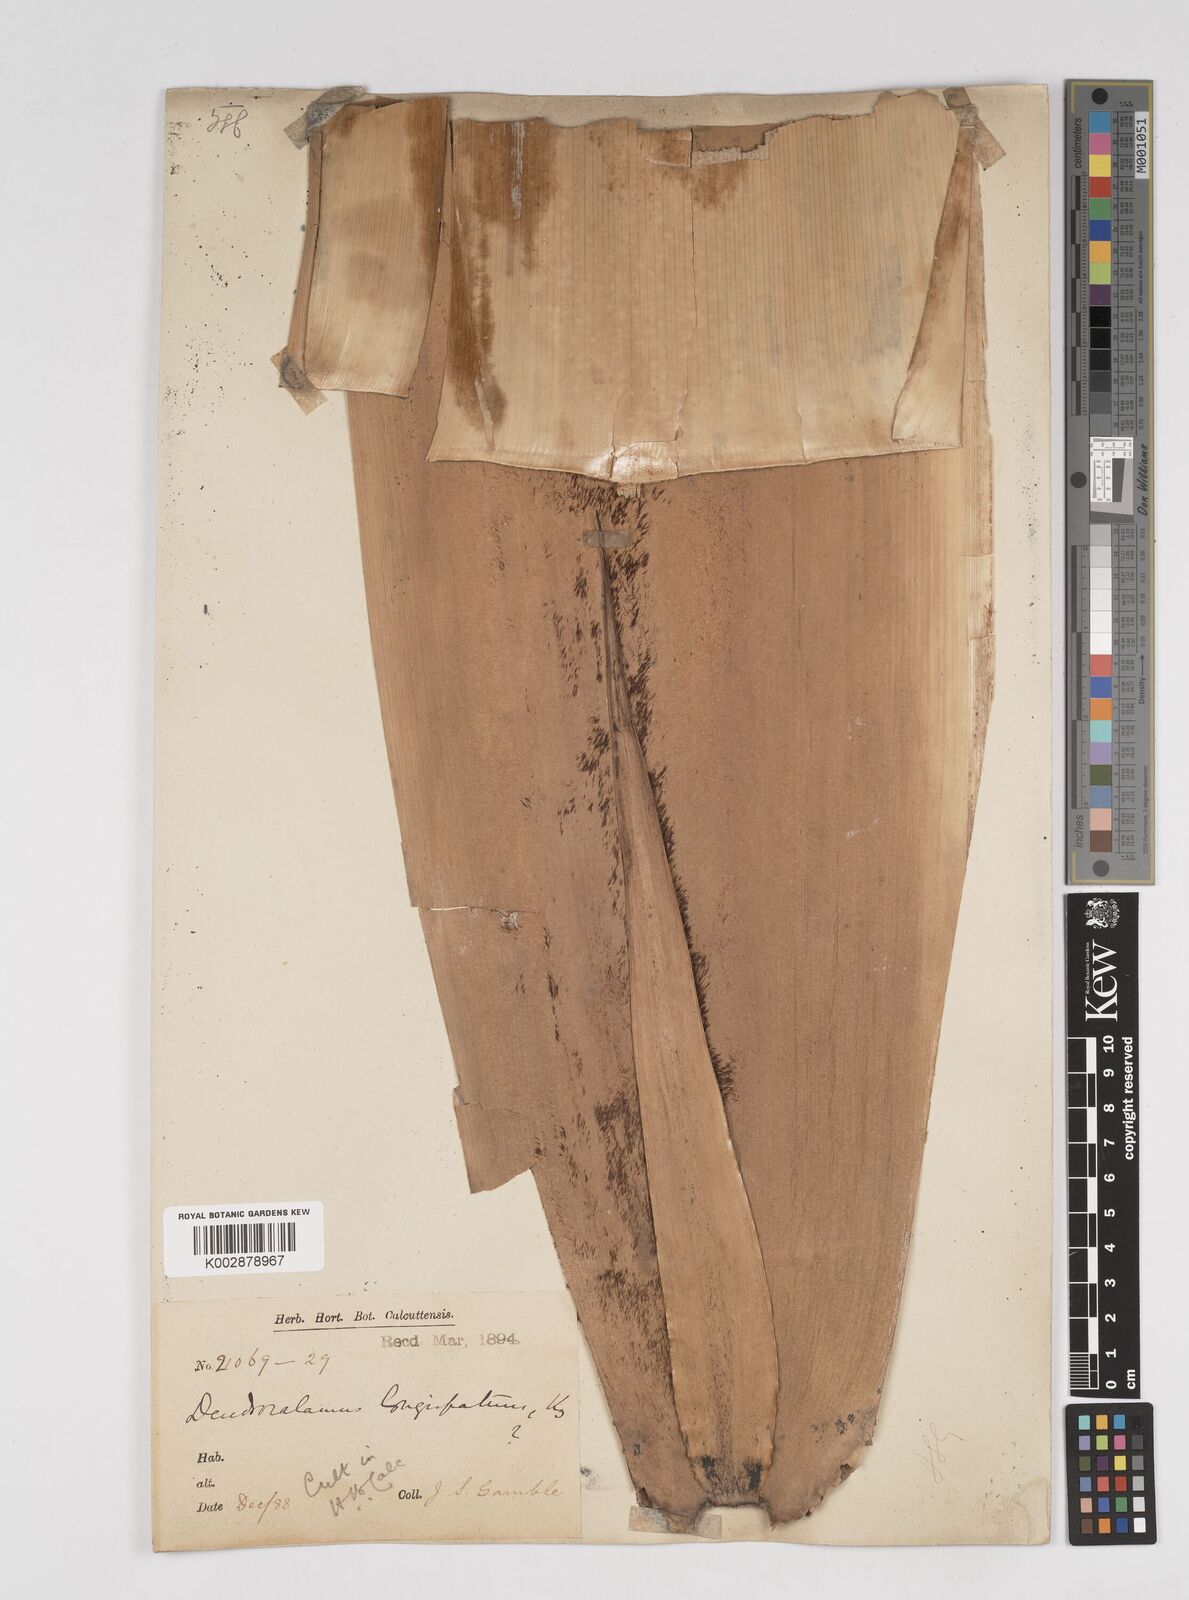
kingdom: Plantae
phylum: Tracheophyta
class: Liliopsida
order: Poales
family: Poaceae
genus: Dendrocalamus
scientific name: Dendrocalamus longispathus
